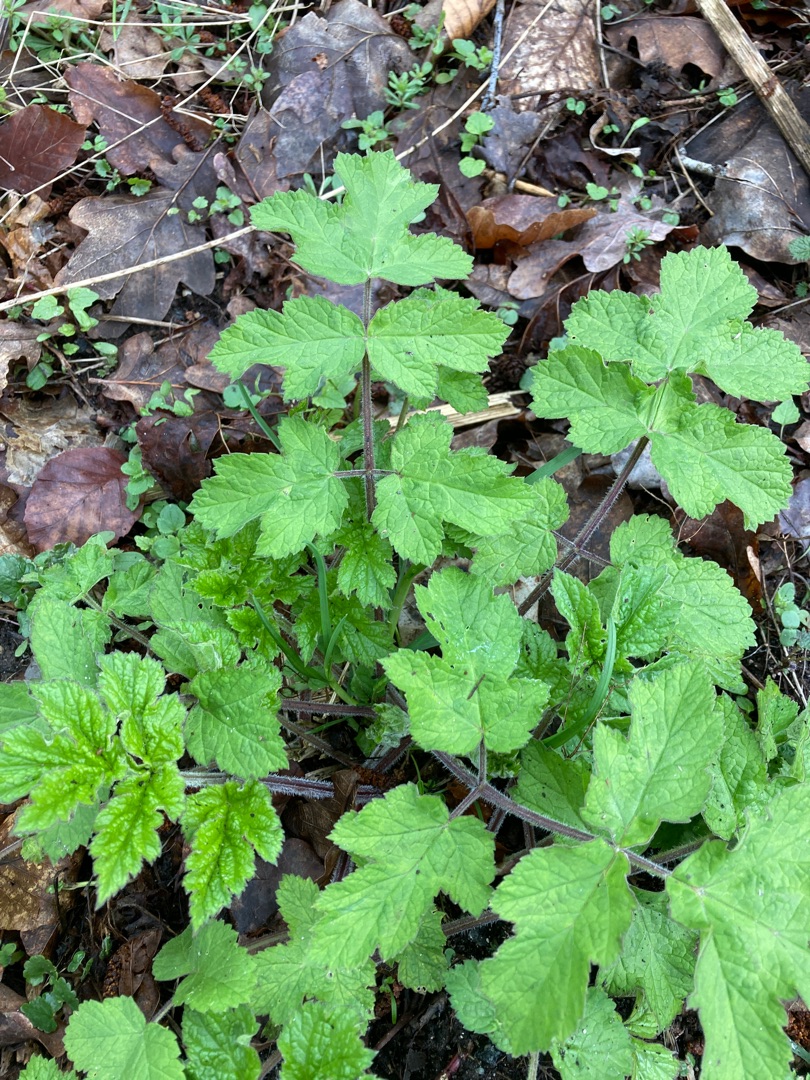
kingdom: Plantae
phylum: Tracheophyta
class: Magnoliopsida
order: Apiales
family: Apiaceae
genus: Heracleum
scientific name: Heracleum sphondylium
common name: Almindelig bjørneklo
